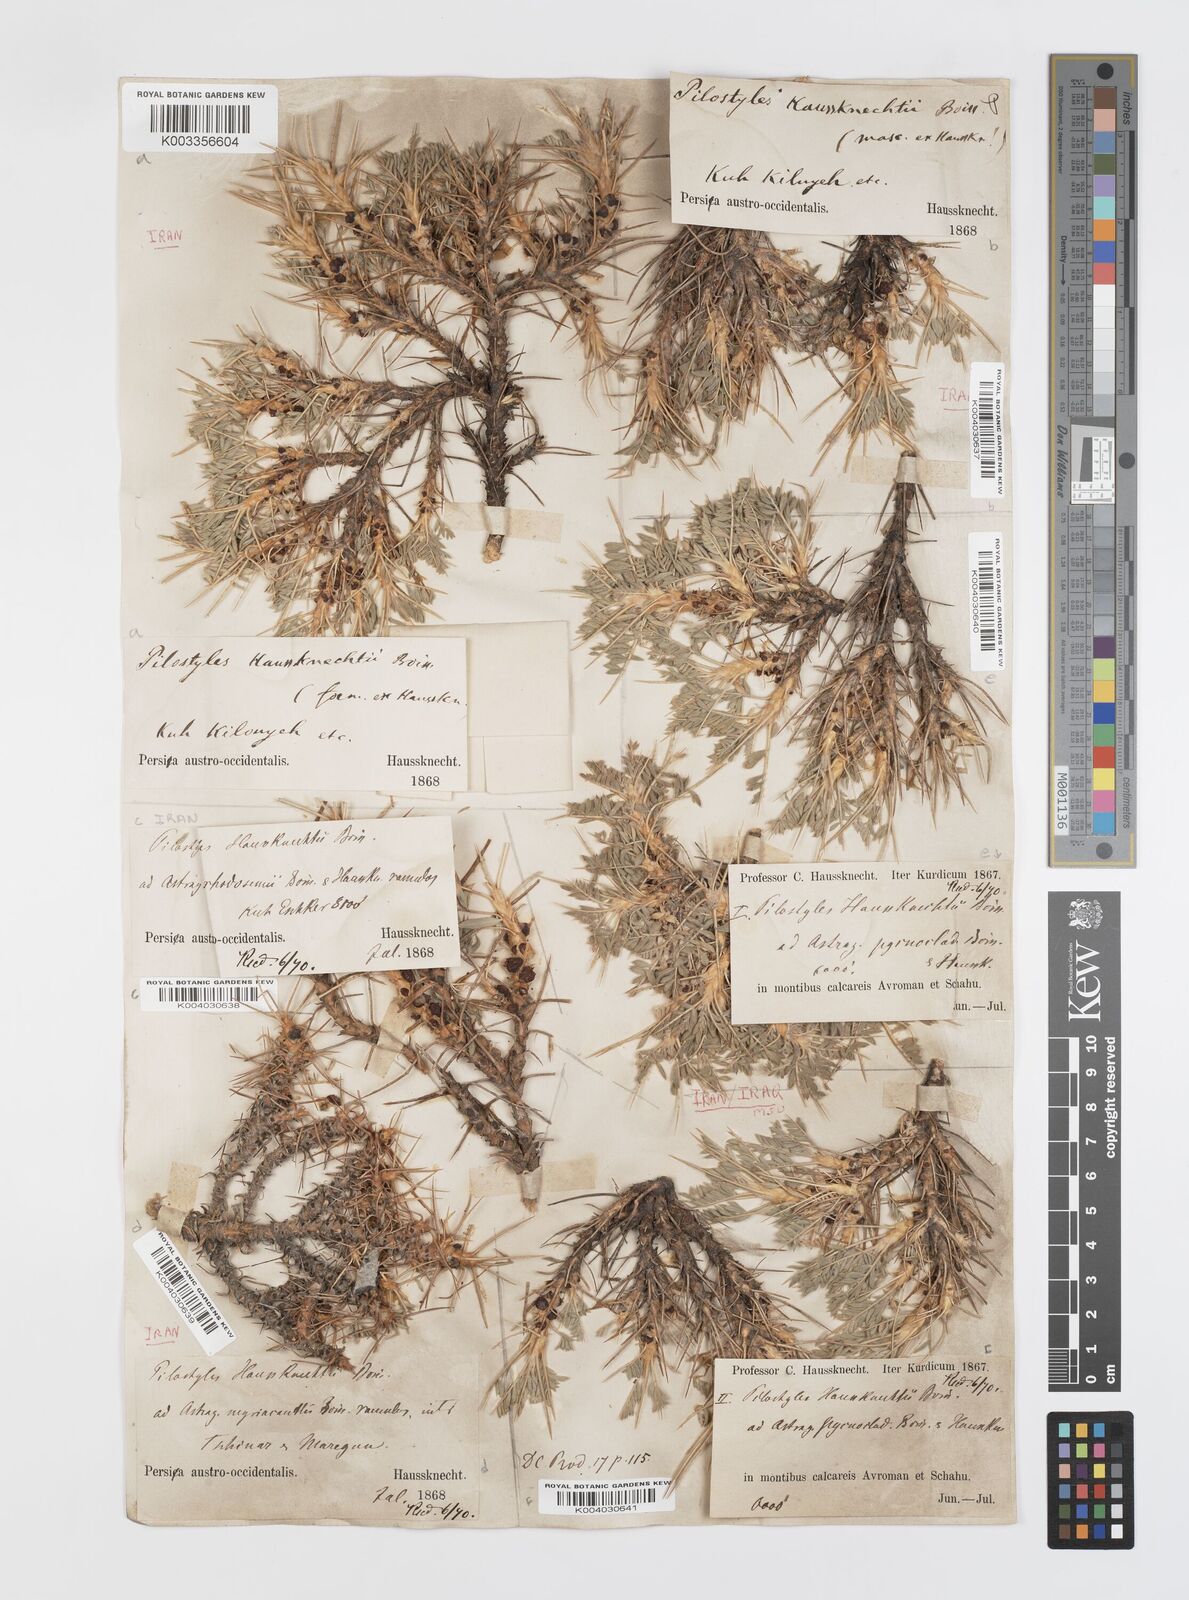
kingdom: Plantae
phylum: Tracheophyta
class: Magnoliopsida
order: Cucurbitales
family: Apodanthaceae
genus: Pilostyles
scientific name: Pilostyles haussknechtii
